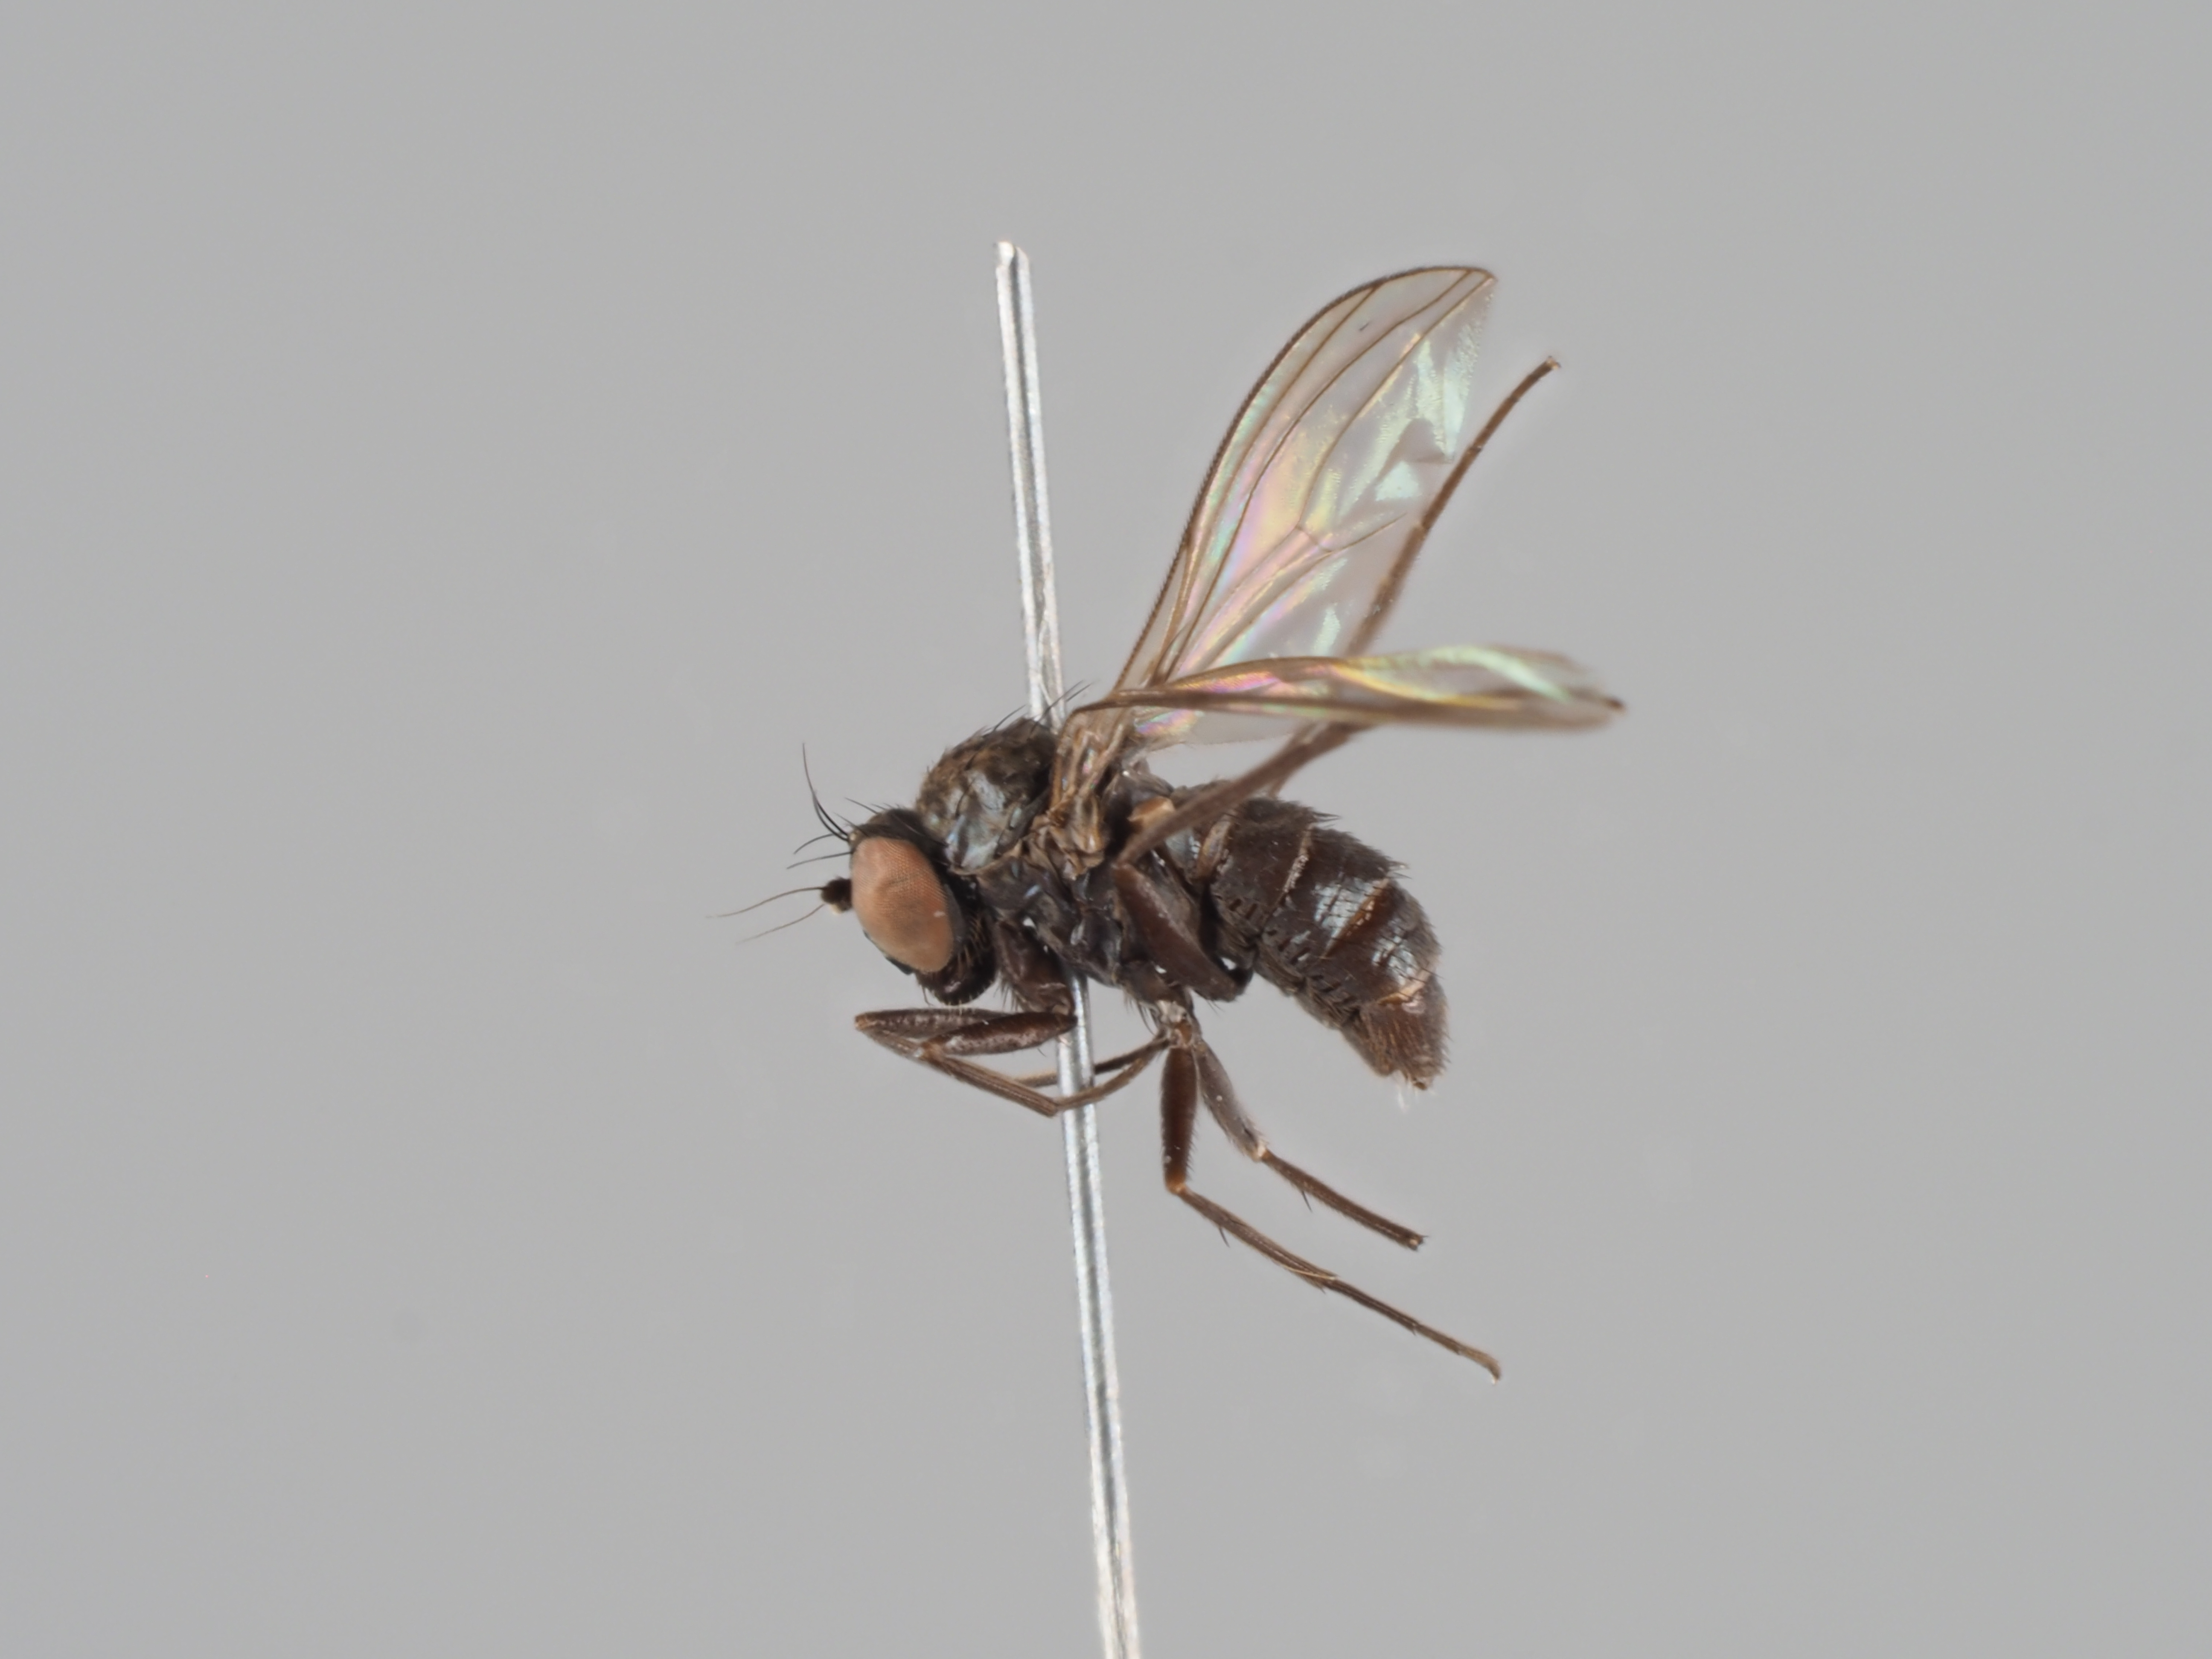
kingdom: Animalia
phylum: Arthropoda
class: Insecta
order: Diptera
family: Dolichopodidae
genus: Medetera
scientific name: Medetera tristis
